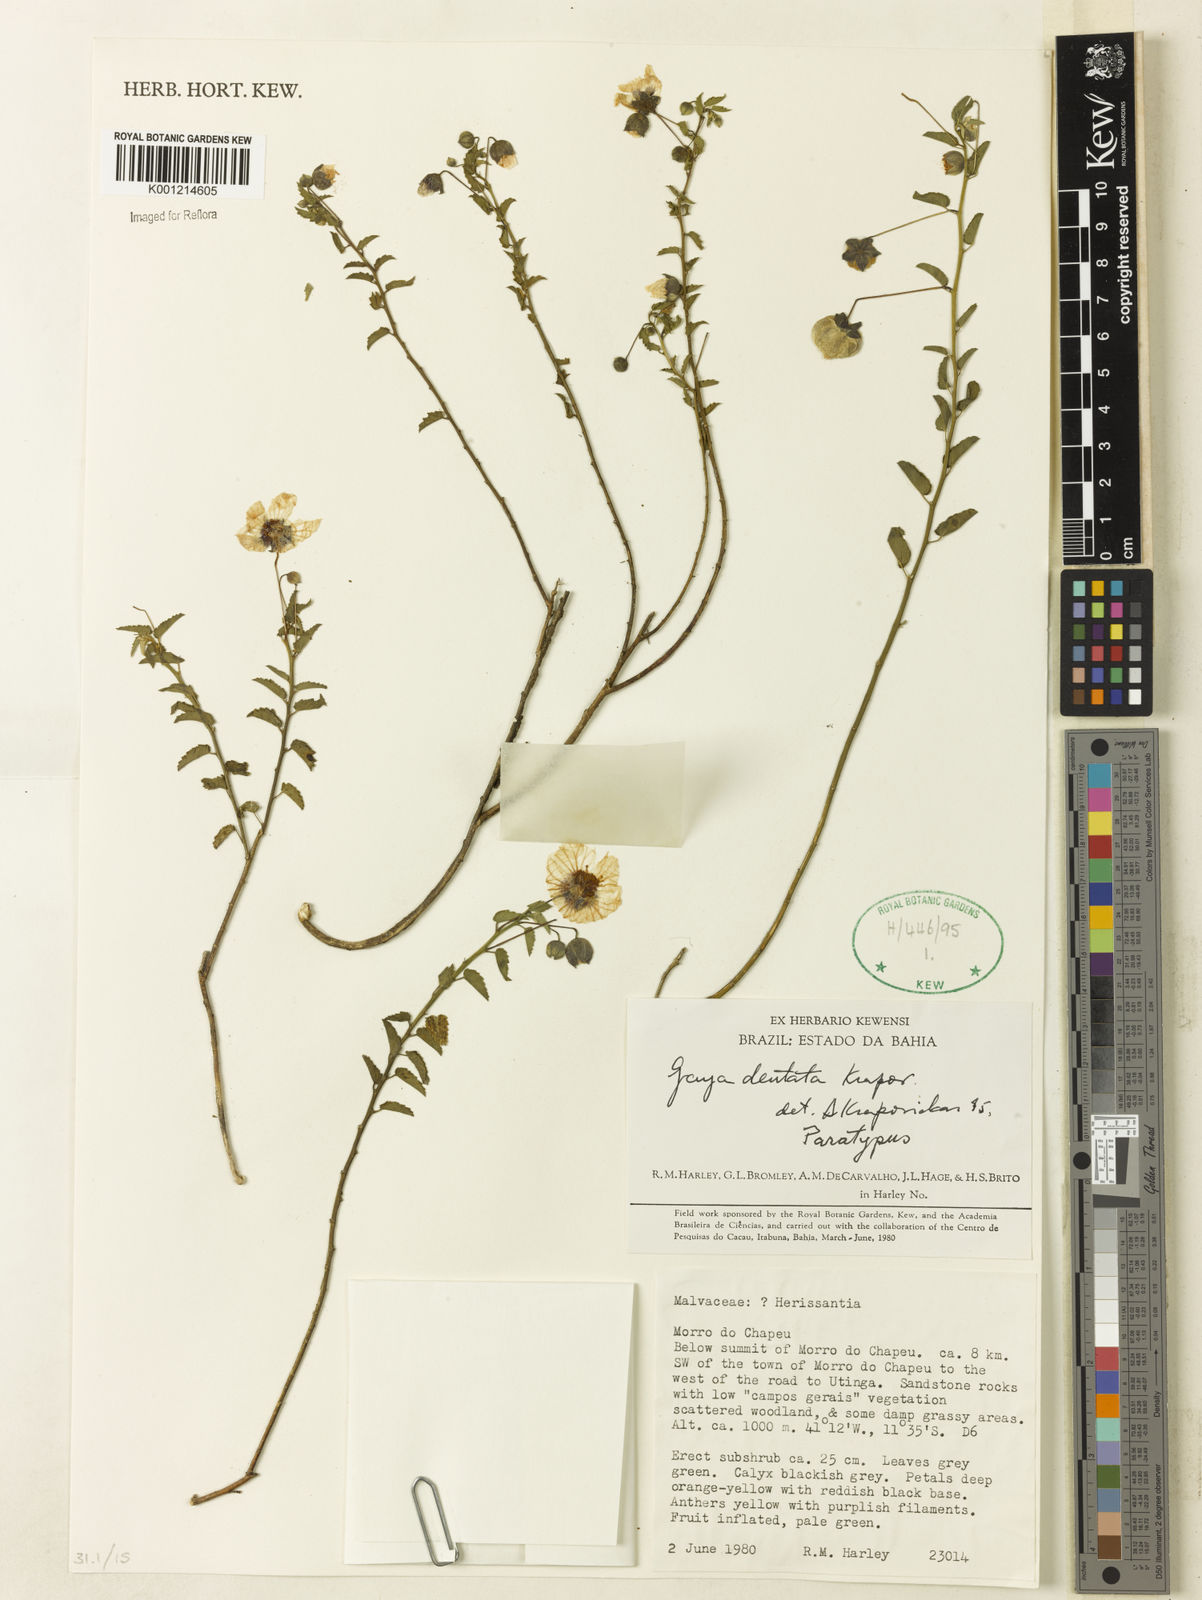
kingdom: Plantae
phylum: Tracheophyta
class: Magnoliopsida
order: Malvales
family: Malvaceae
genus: Gaya
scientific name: Gaya dentata
